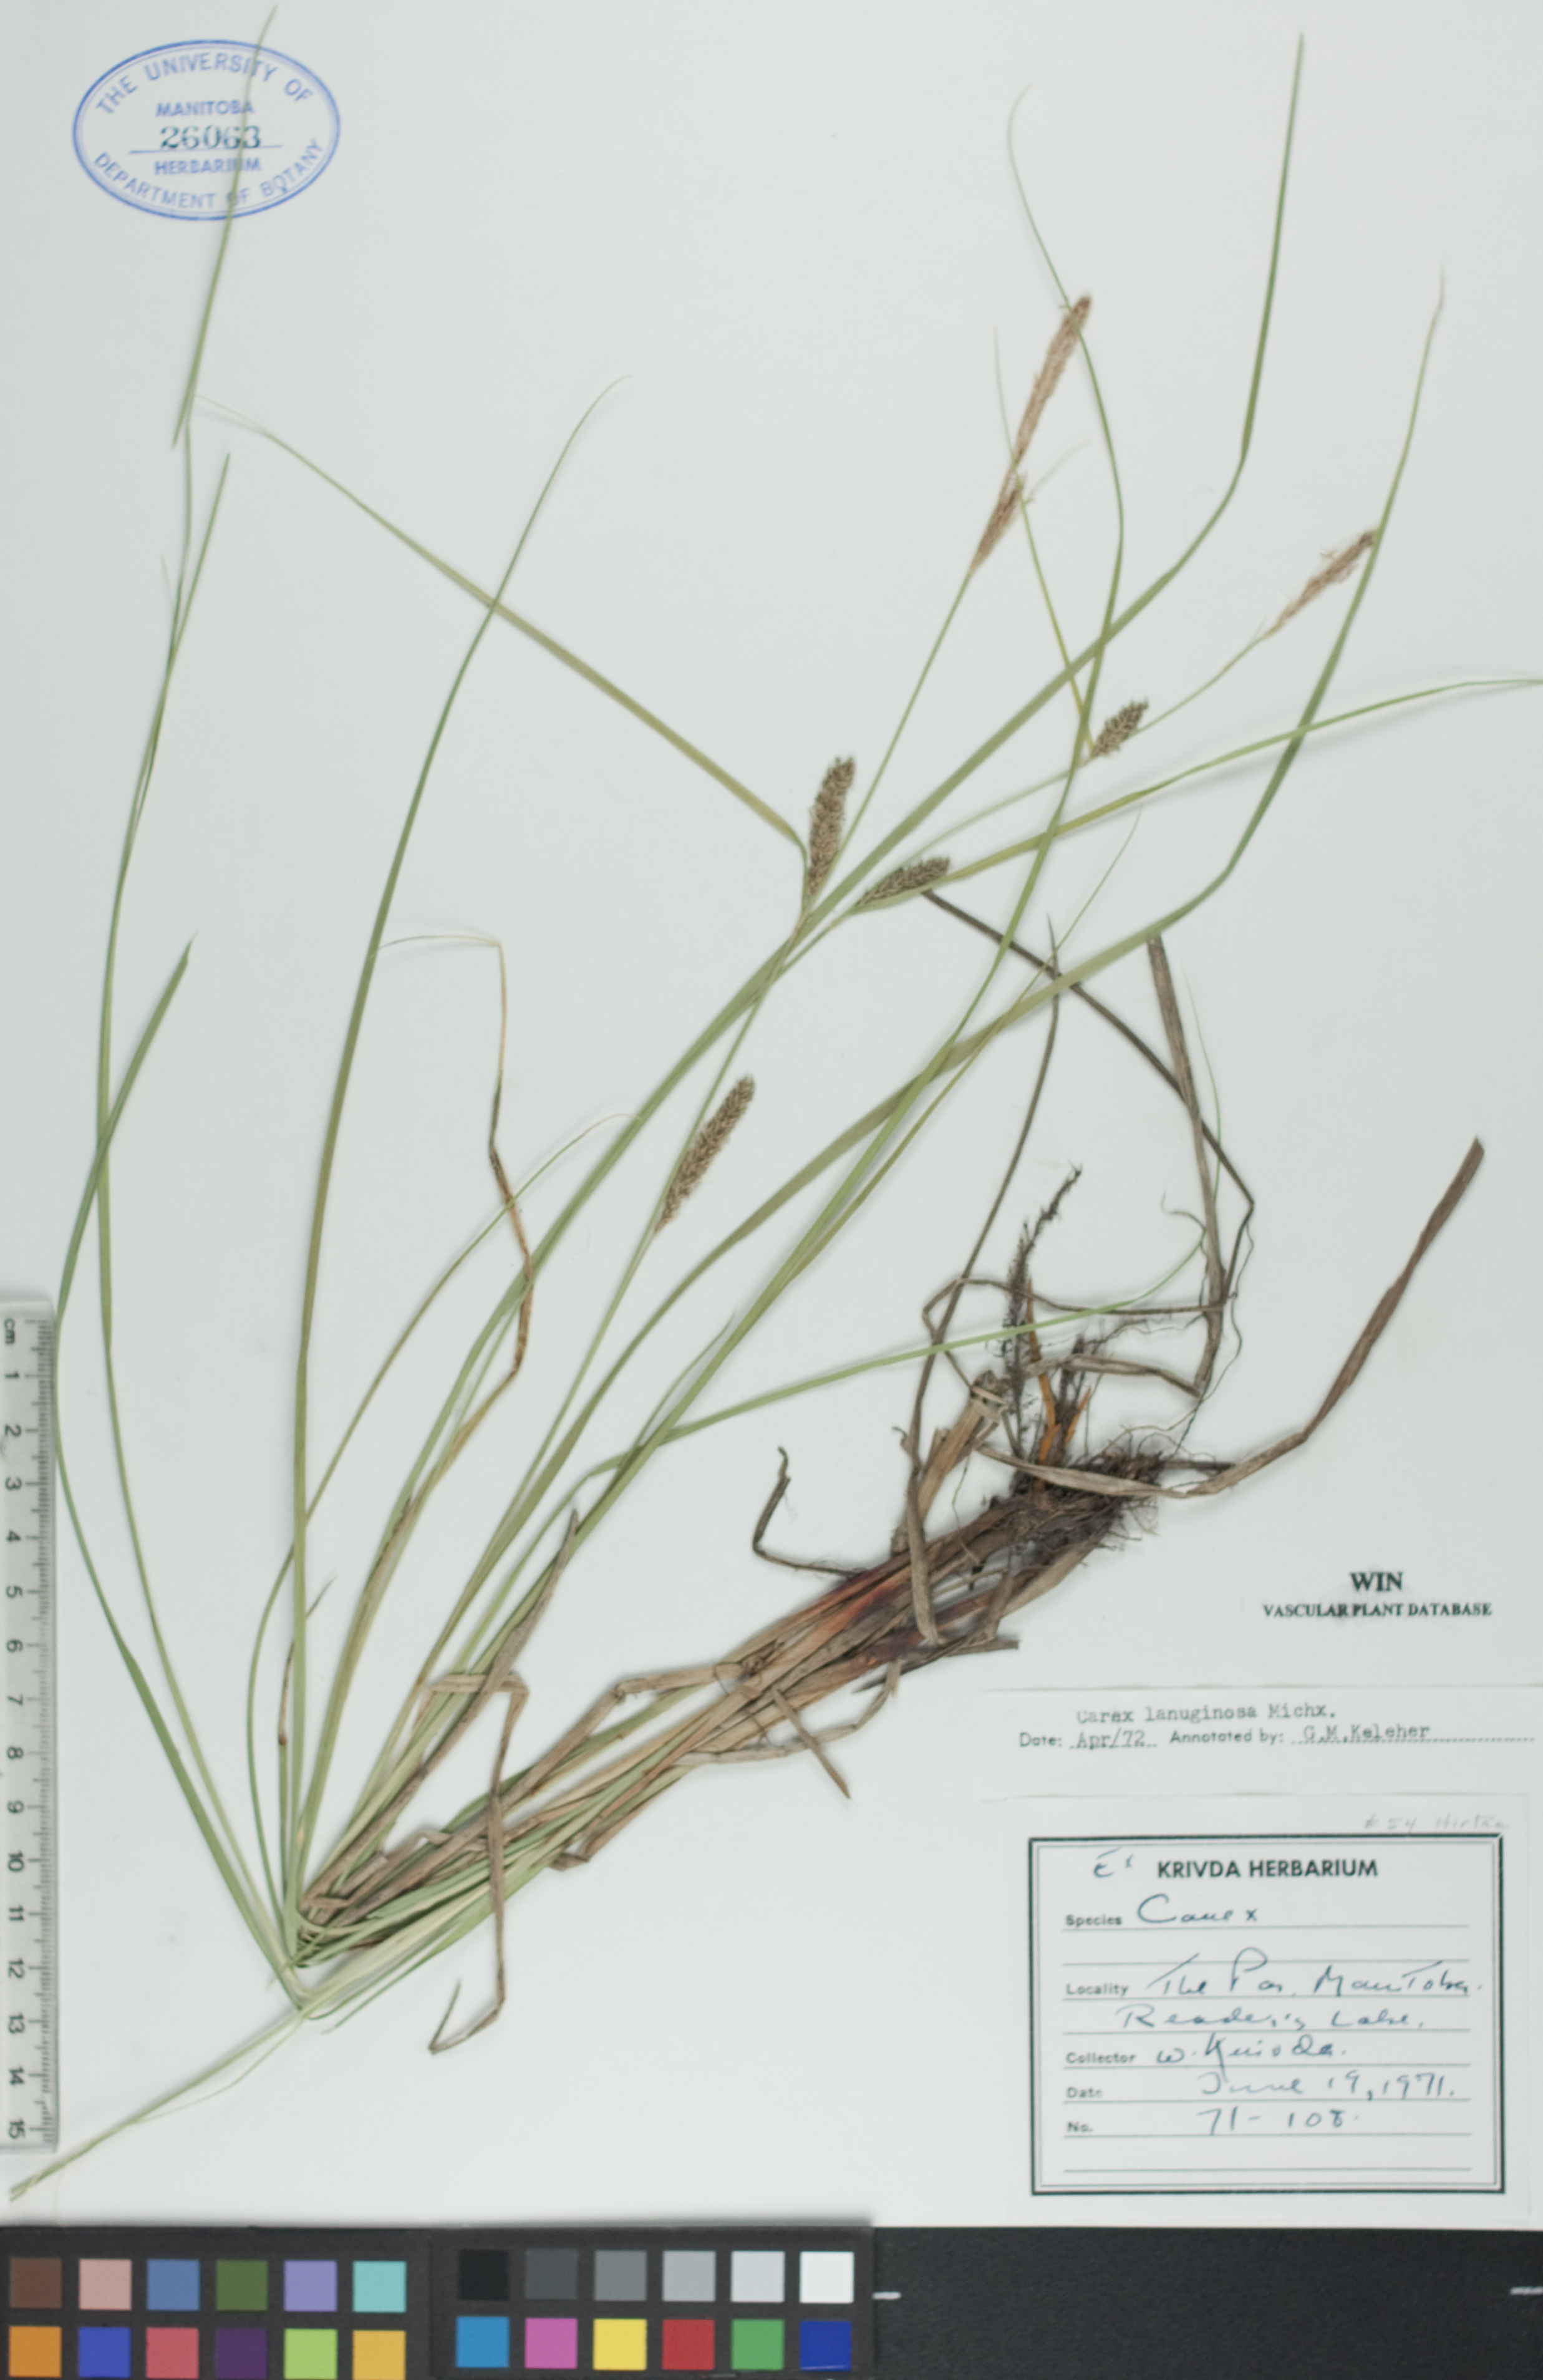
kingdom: Plantae
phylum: Tracheophyta
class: Liliopsida
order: Poales
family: Cyperaceae
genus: Carex
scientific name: Carex lasiocarpa
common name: Slender sedge
